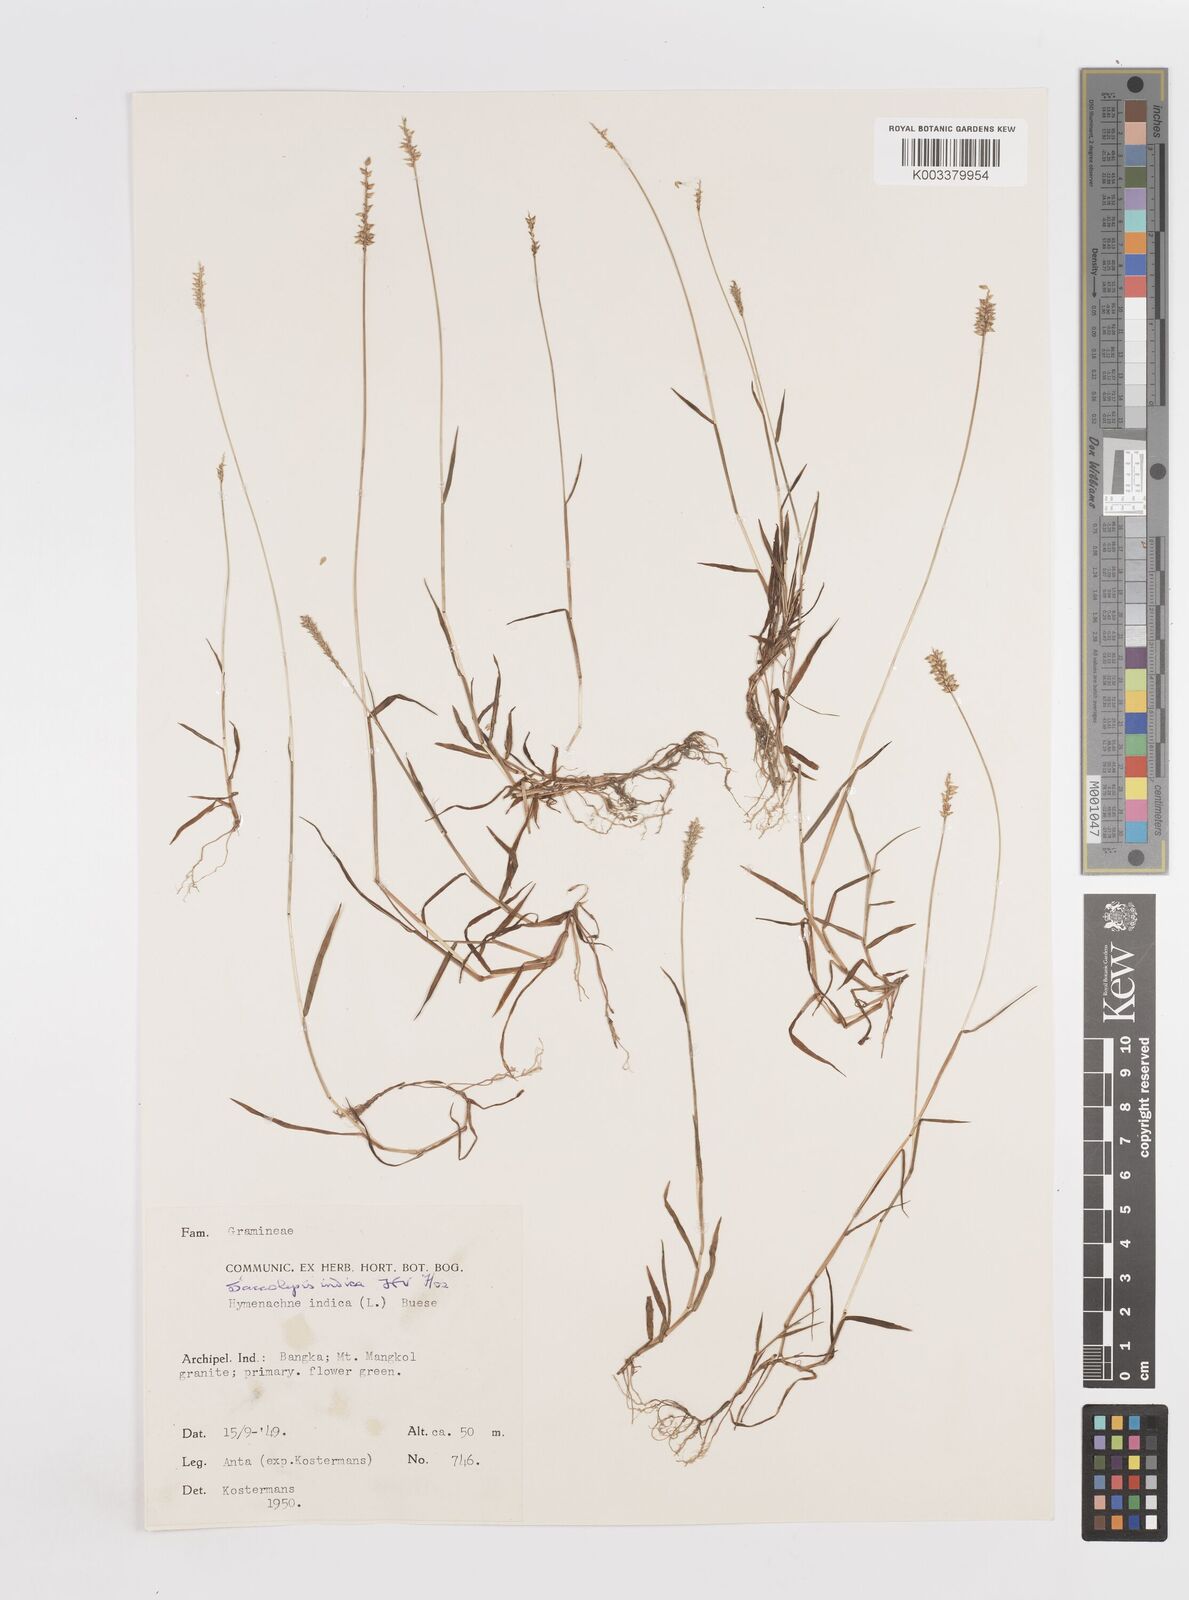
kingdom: Plantae
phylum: Tracheophyta
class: Liliopsida
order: Poales
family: Poaceae
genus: Sacciolepis
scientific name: Sacciolepis indica
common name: Glenwoodgrass
